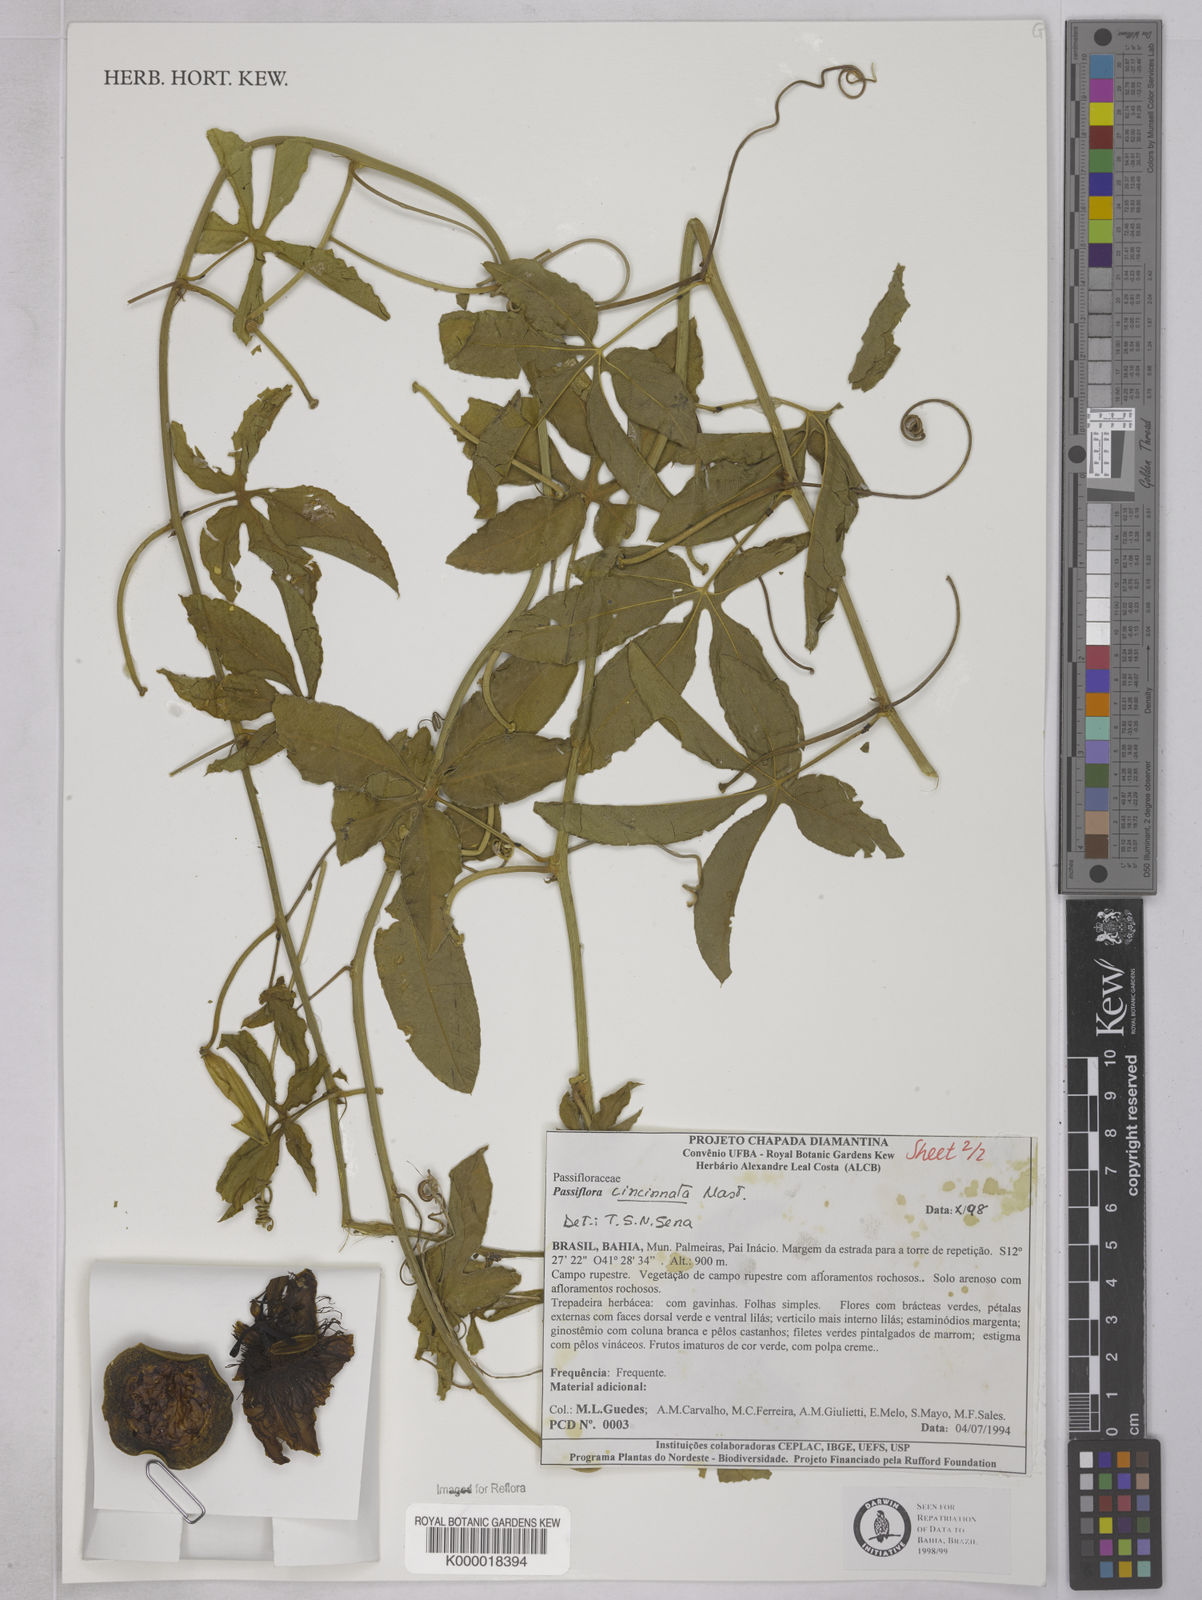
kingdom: Plantae
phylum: Tracheophyta
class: Magnoliopsida
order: Malpighiales
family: Passifloraceae
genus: Passiflora
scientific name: Passiflora cincinnata
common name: Crato passionvine
